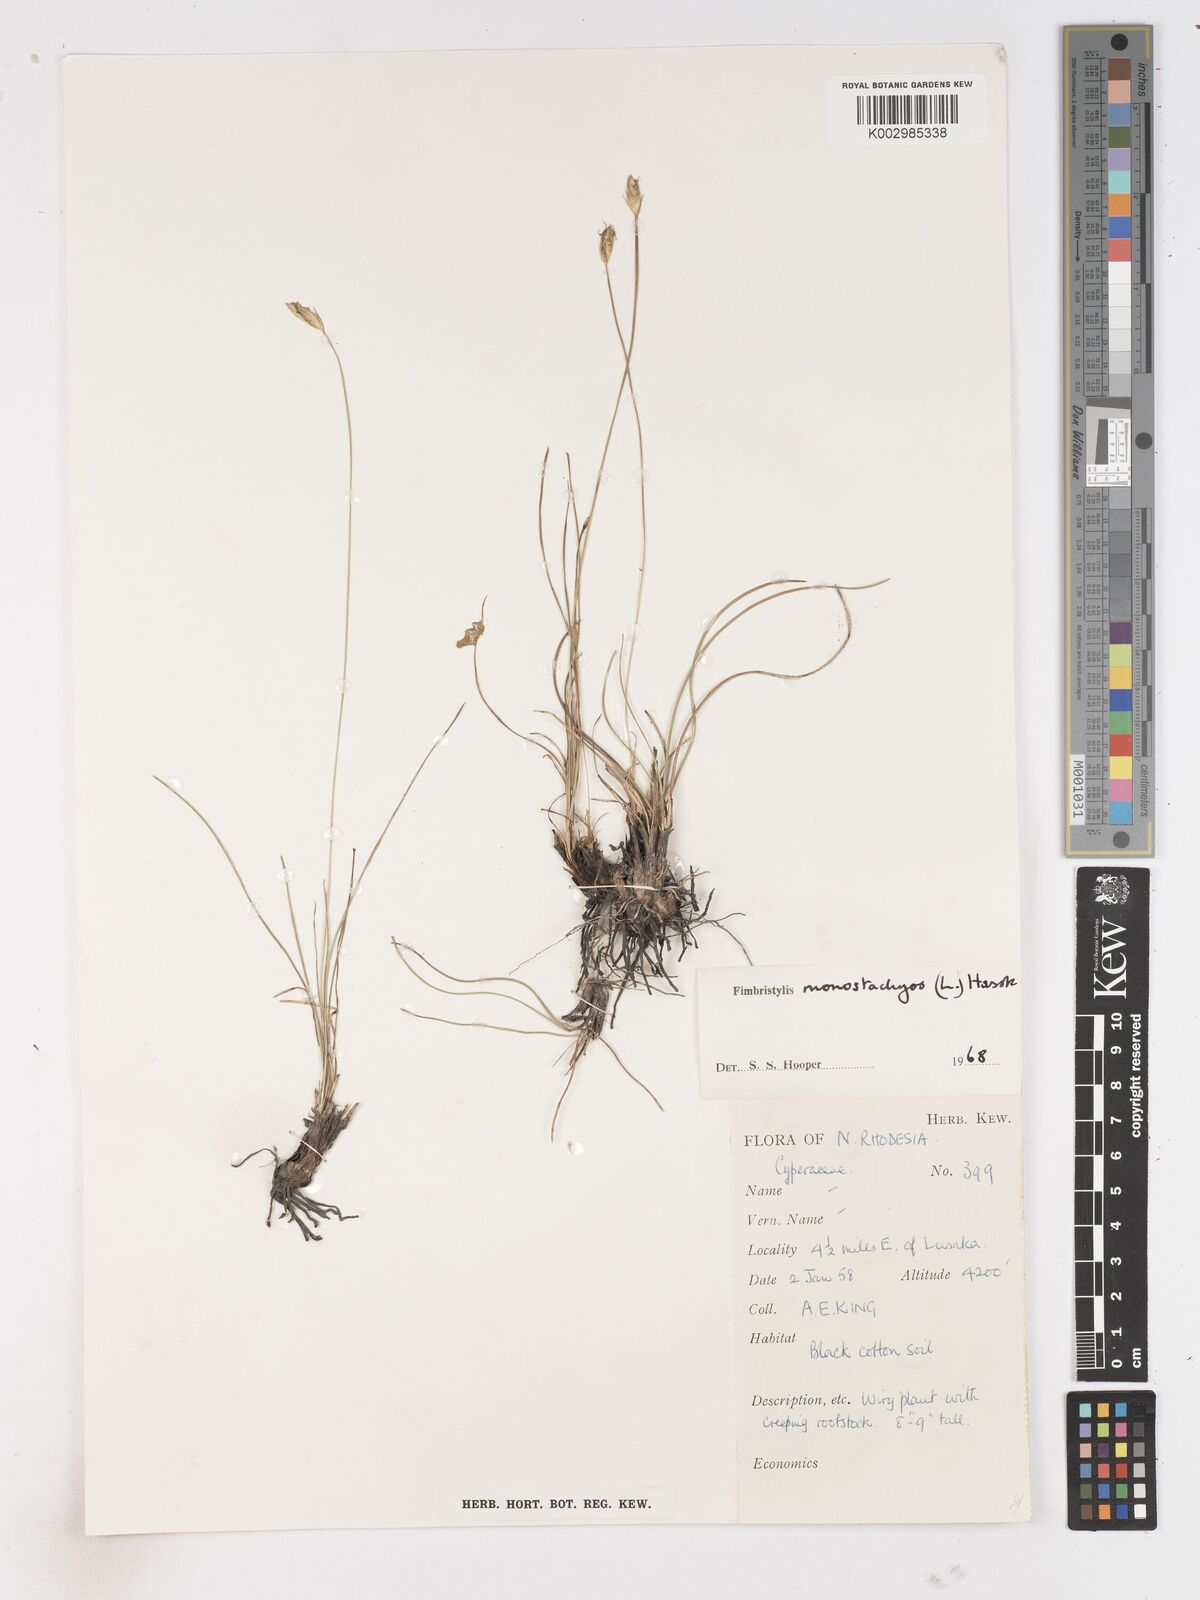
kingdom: Plantae
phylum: Tracheophyta
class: Liliopsida
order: Poales
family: Cyperaceae
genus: Abildgaardia
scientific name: Abildgaardia ovata
